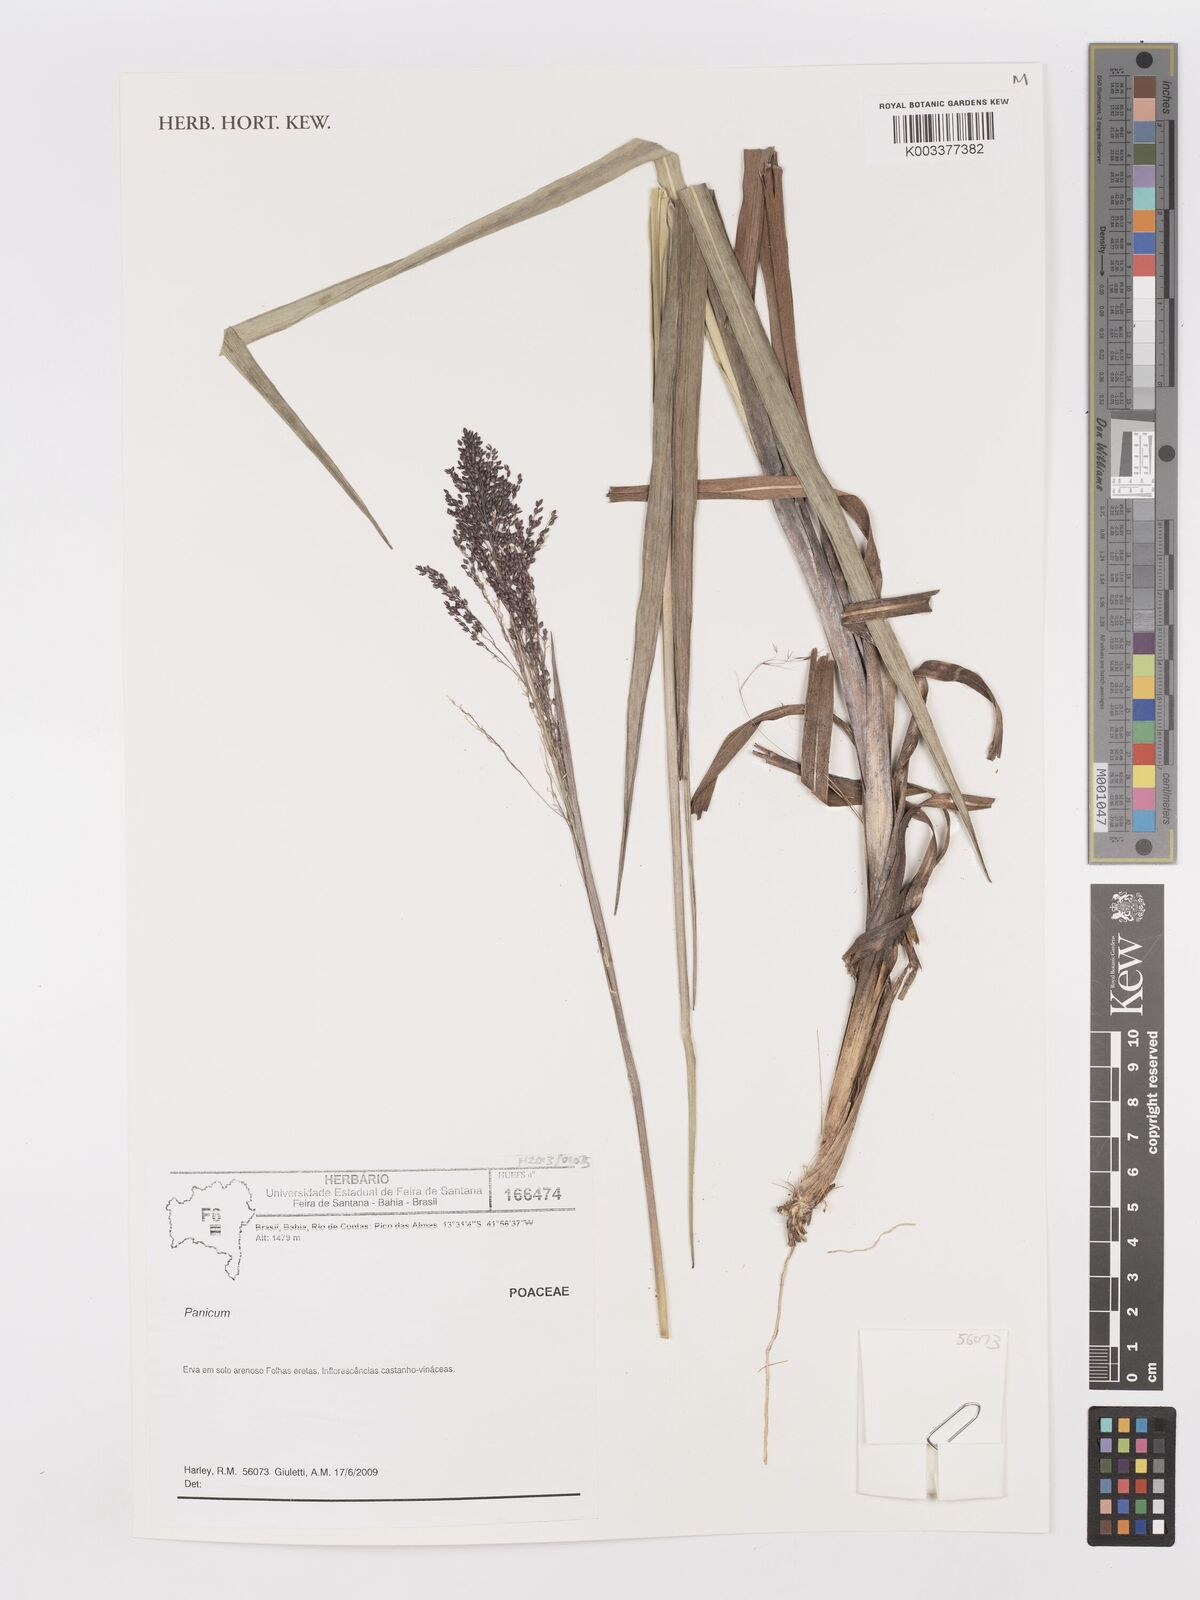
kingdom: Plantae
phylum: Tracheophyta
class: Liliopsida
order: Poales
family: Poaceae
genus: Panicum
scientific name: Panicum
